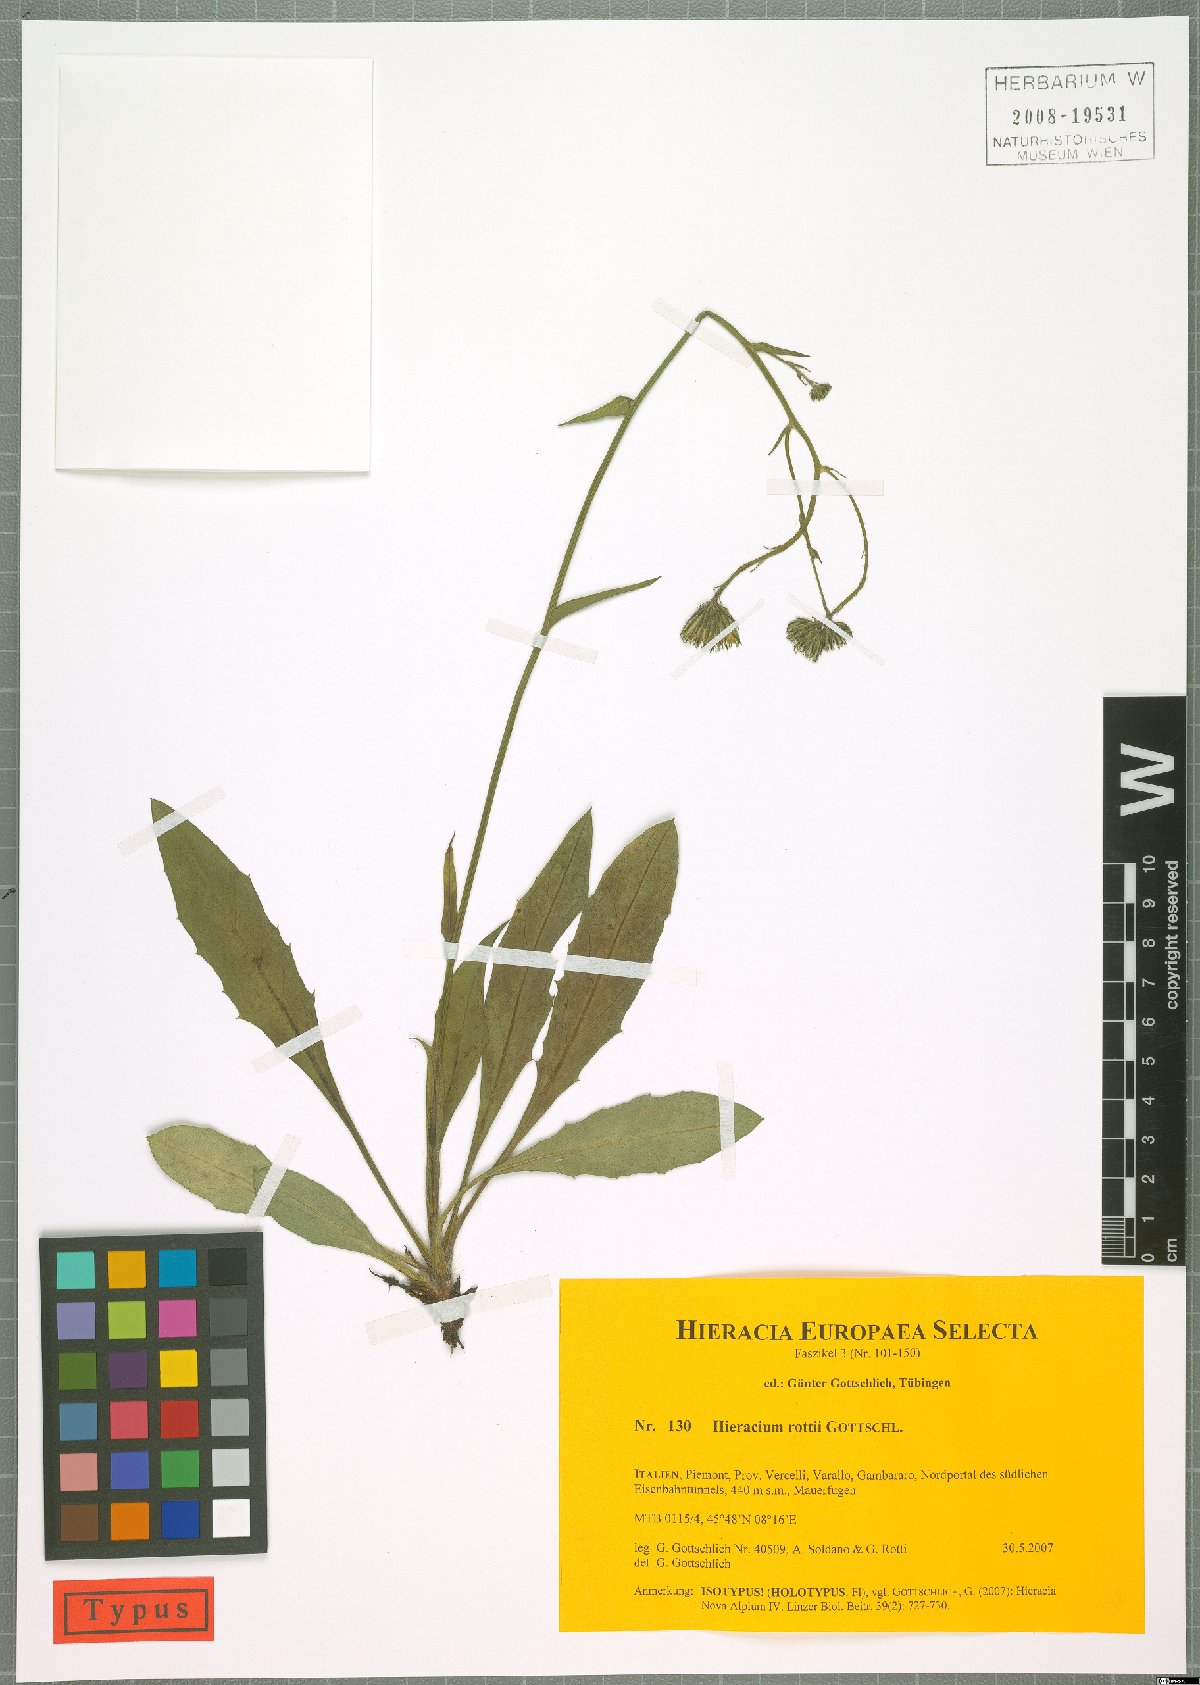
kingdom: Plantae
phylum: Tracheophyta
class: Magnoliopsida
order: Asterales
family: Asteraceae
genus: Hieracium
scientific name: Hieracium rottii
